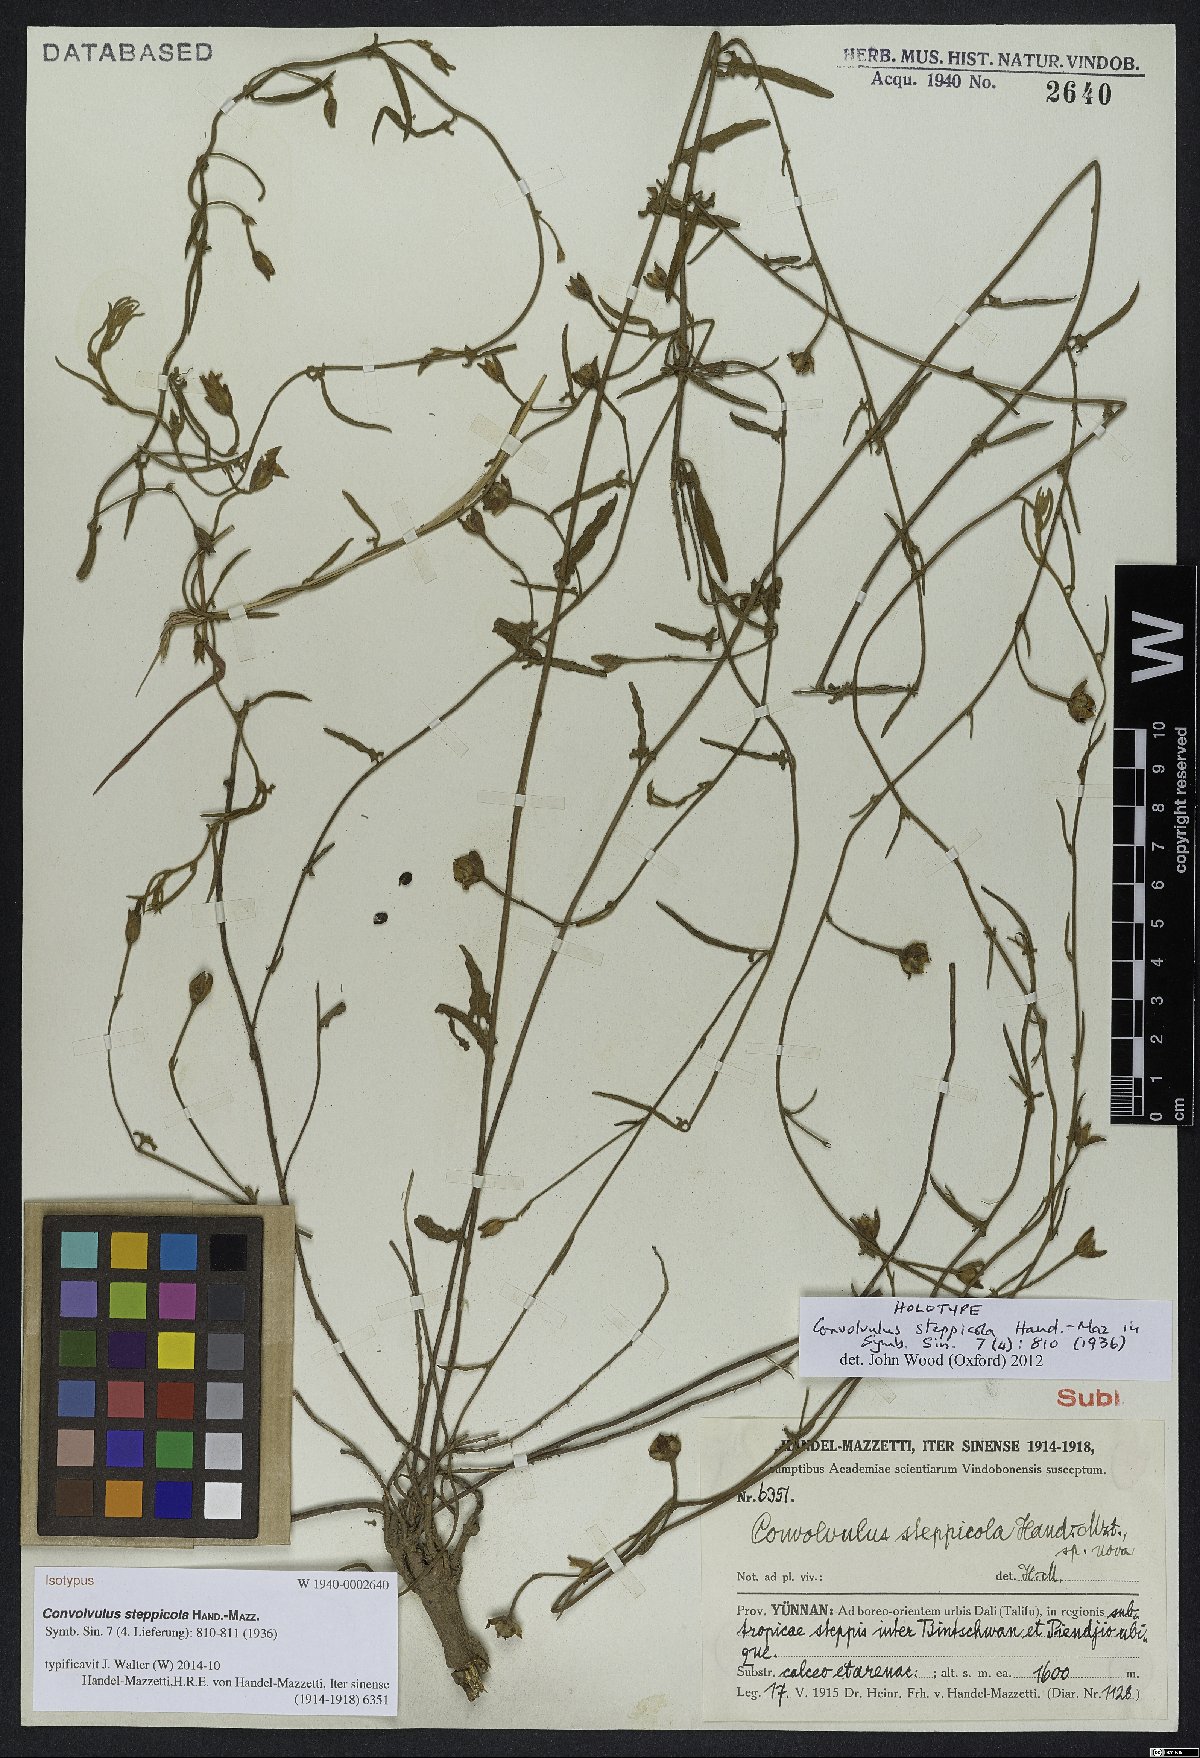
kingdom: Plantae
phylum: Tracheophyta
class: Magnoliopsida
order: Solanales
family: Convolvulaceae
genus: Convolvulus
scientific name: Convolvulus steppicola
